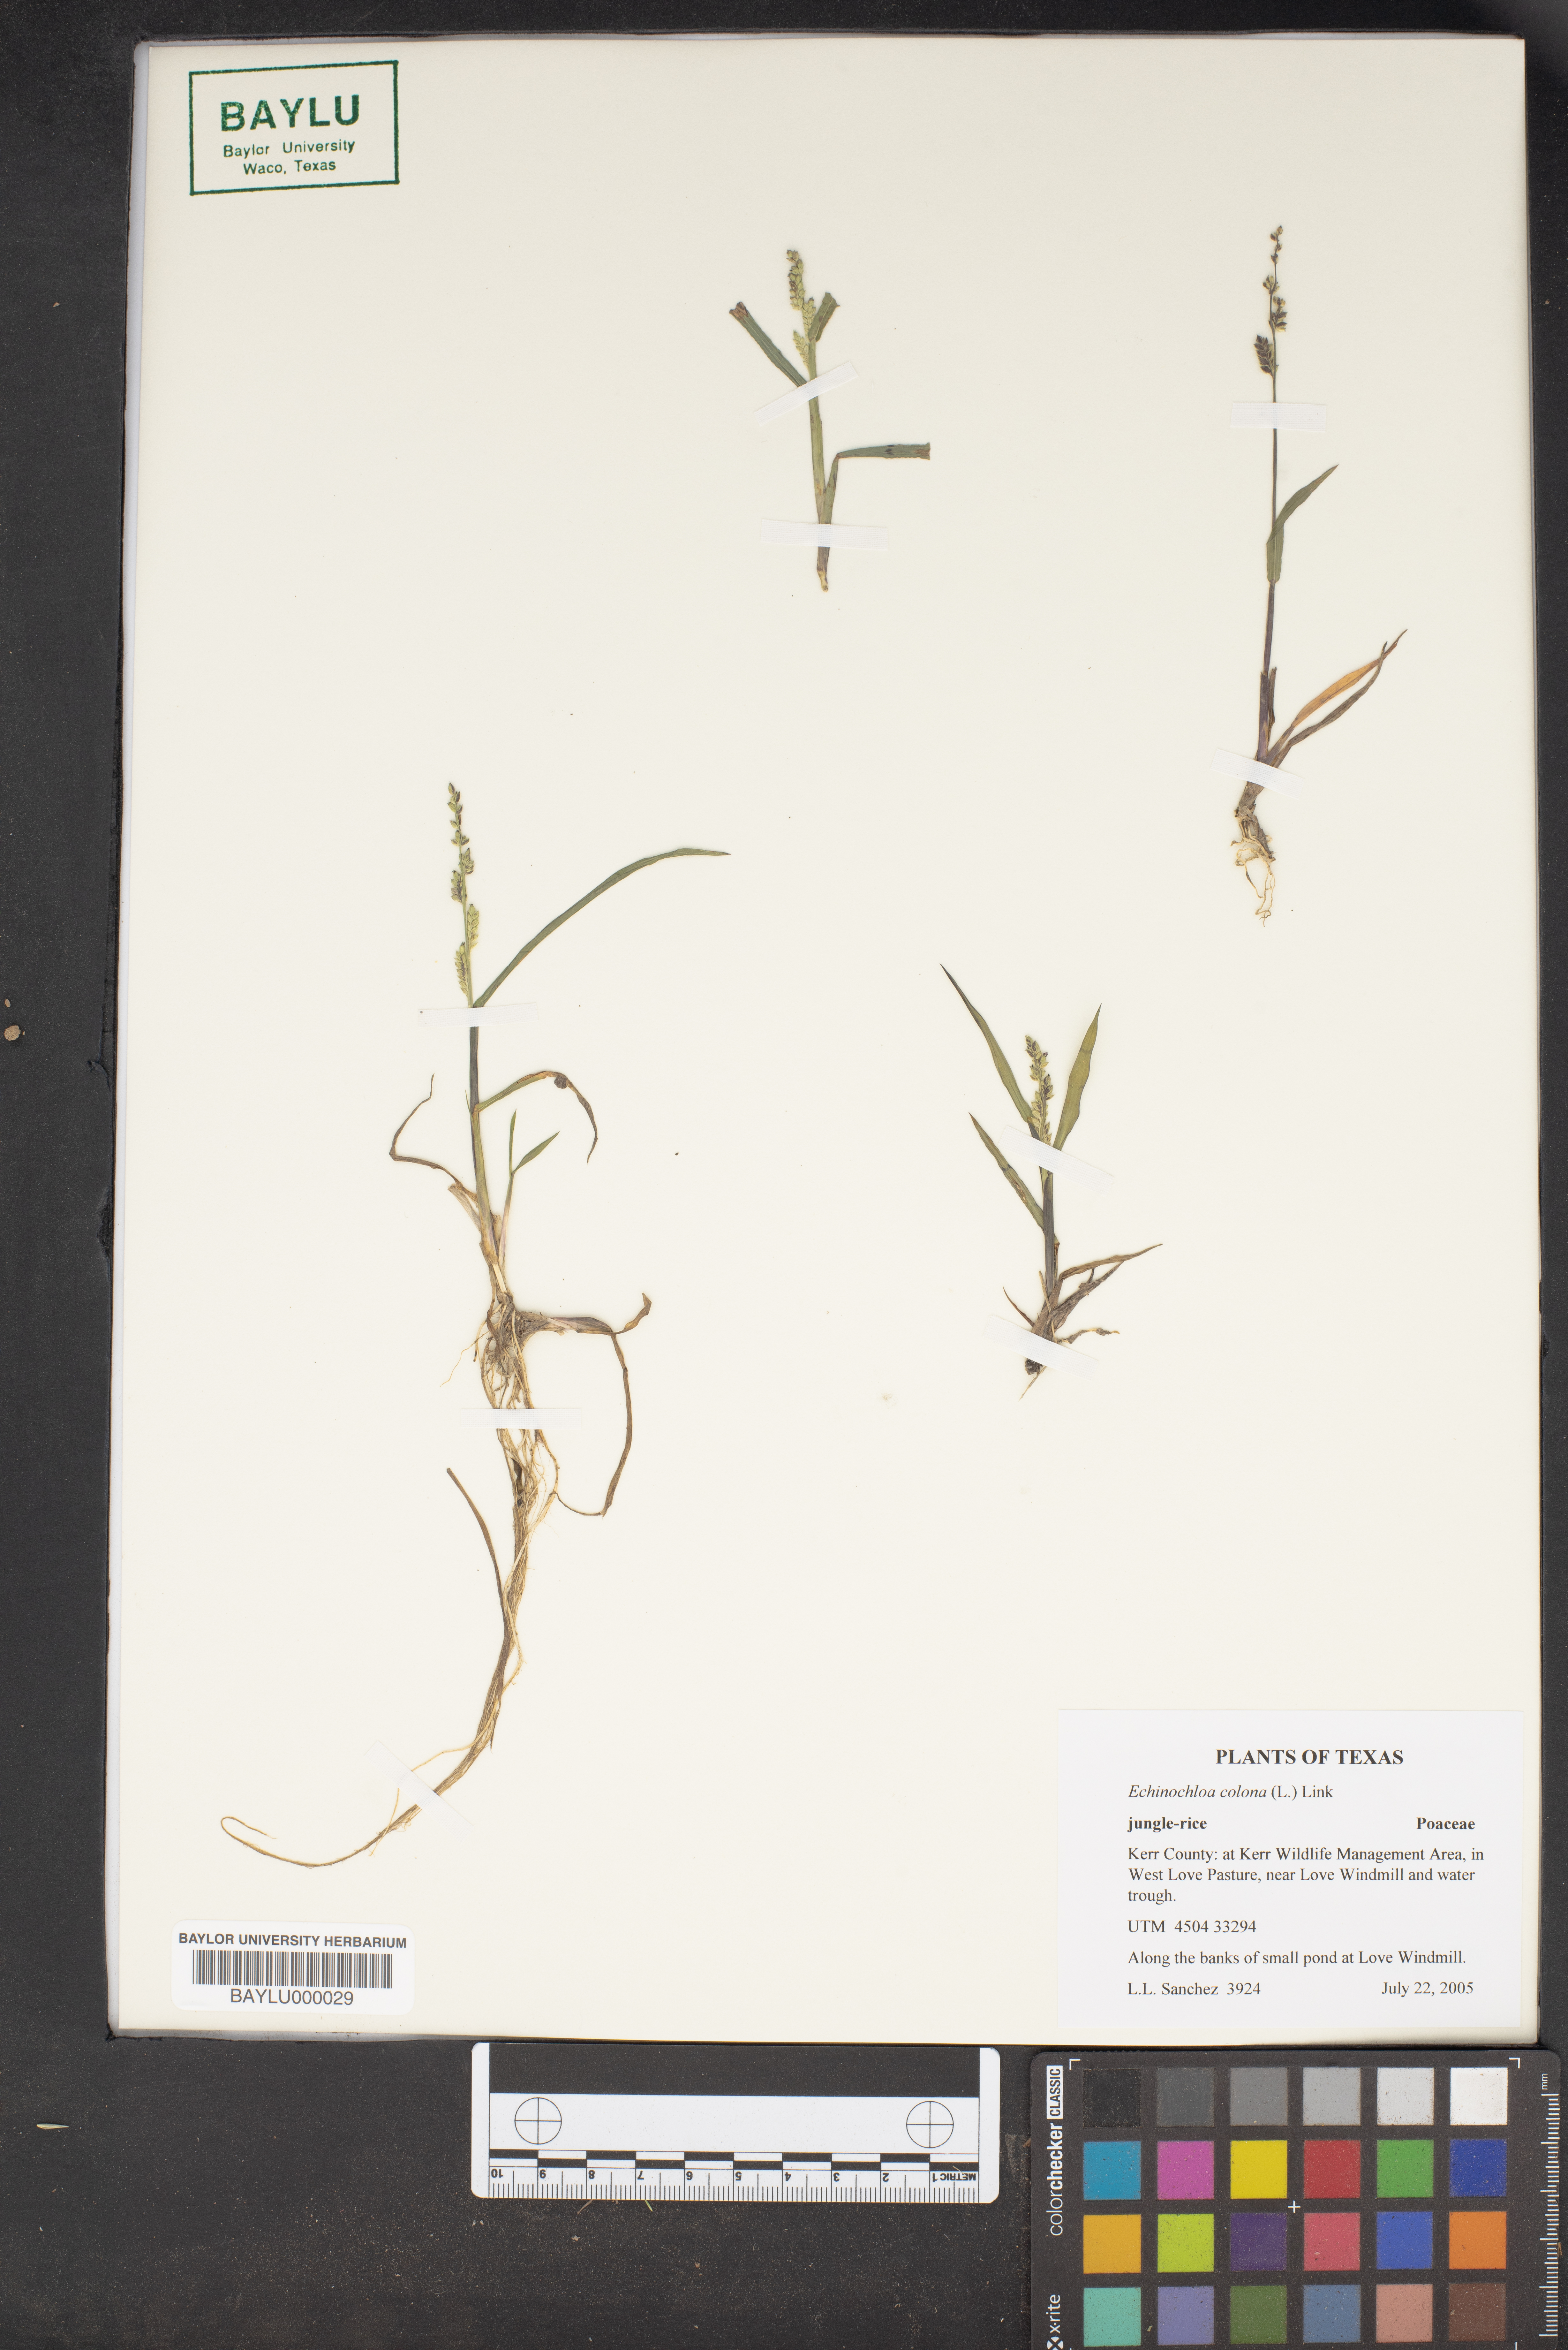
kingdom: Plantae
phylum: Tracheophyta
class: Liliopsida
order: Poales
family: Poaceae
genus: Echinochloa
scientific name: Echinochloa colonum
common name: Jungle rice
